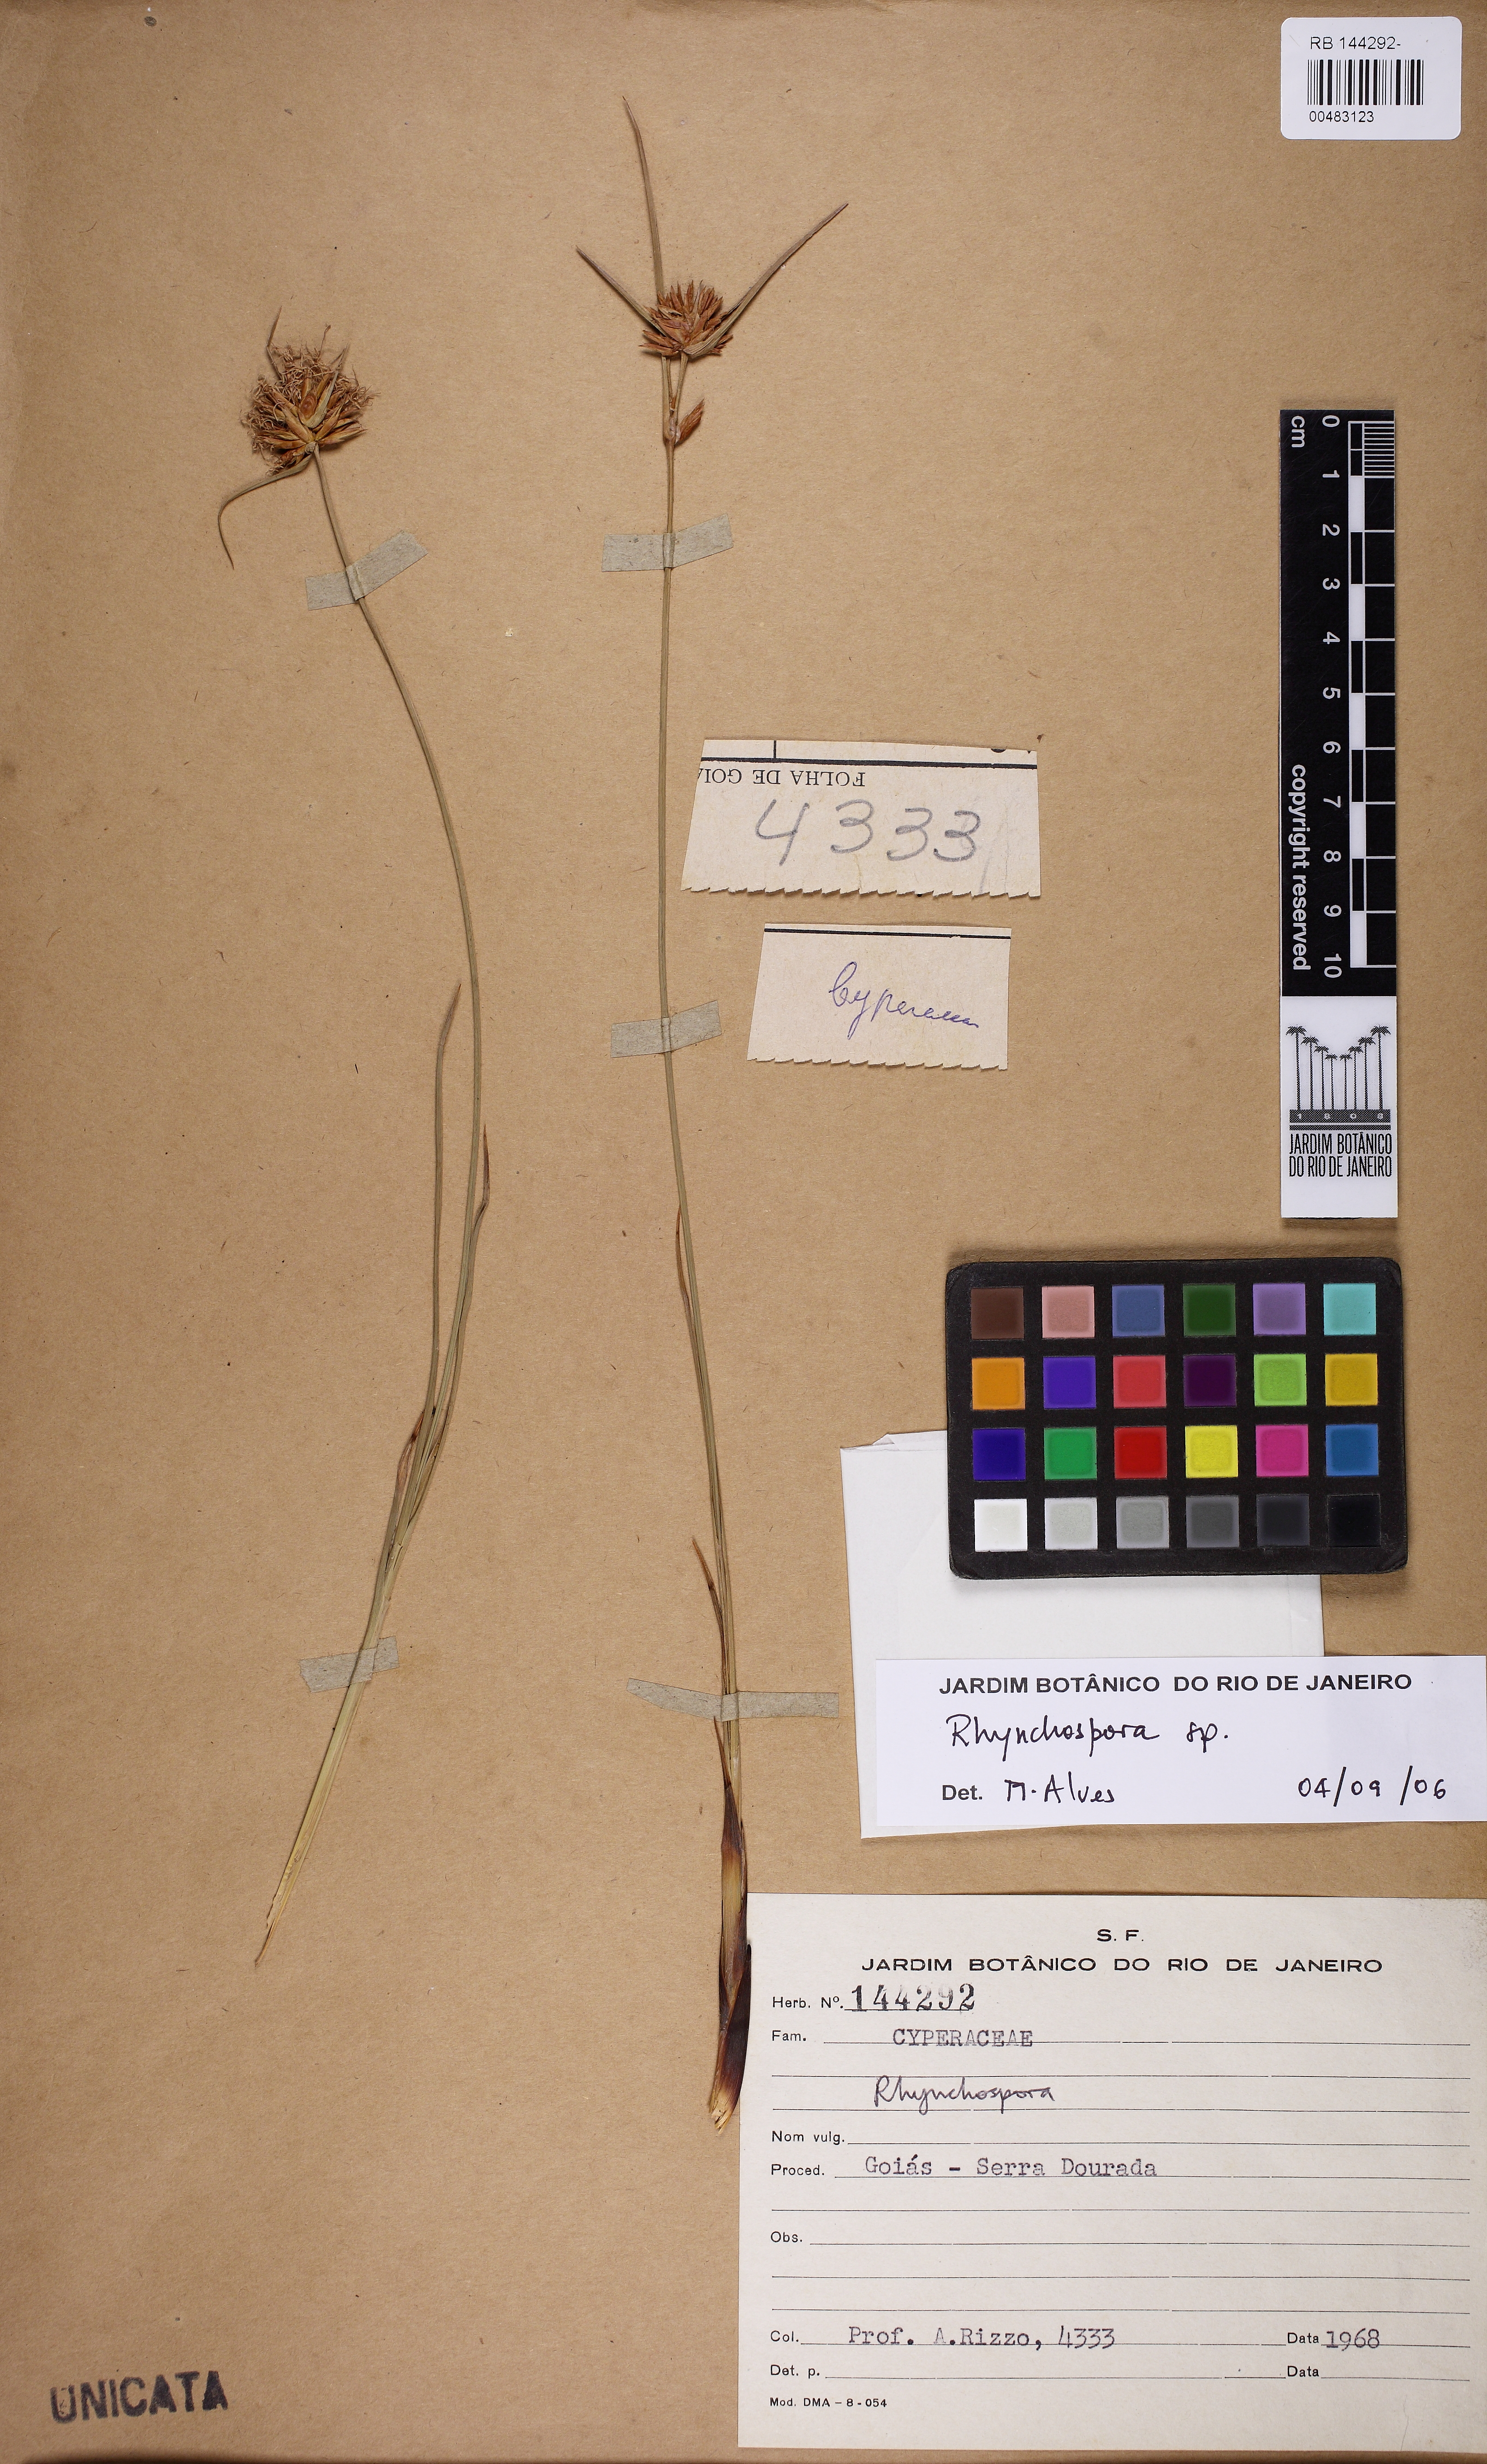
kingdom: Plantae
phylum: Tracheophyta
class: Liliopsida
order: Poales
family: Cyperaceae
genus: Rhynchospora
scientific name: Rhynchospora
